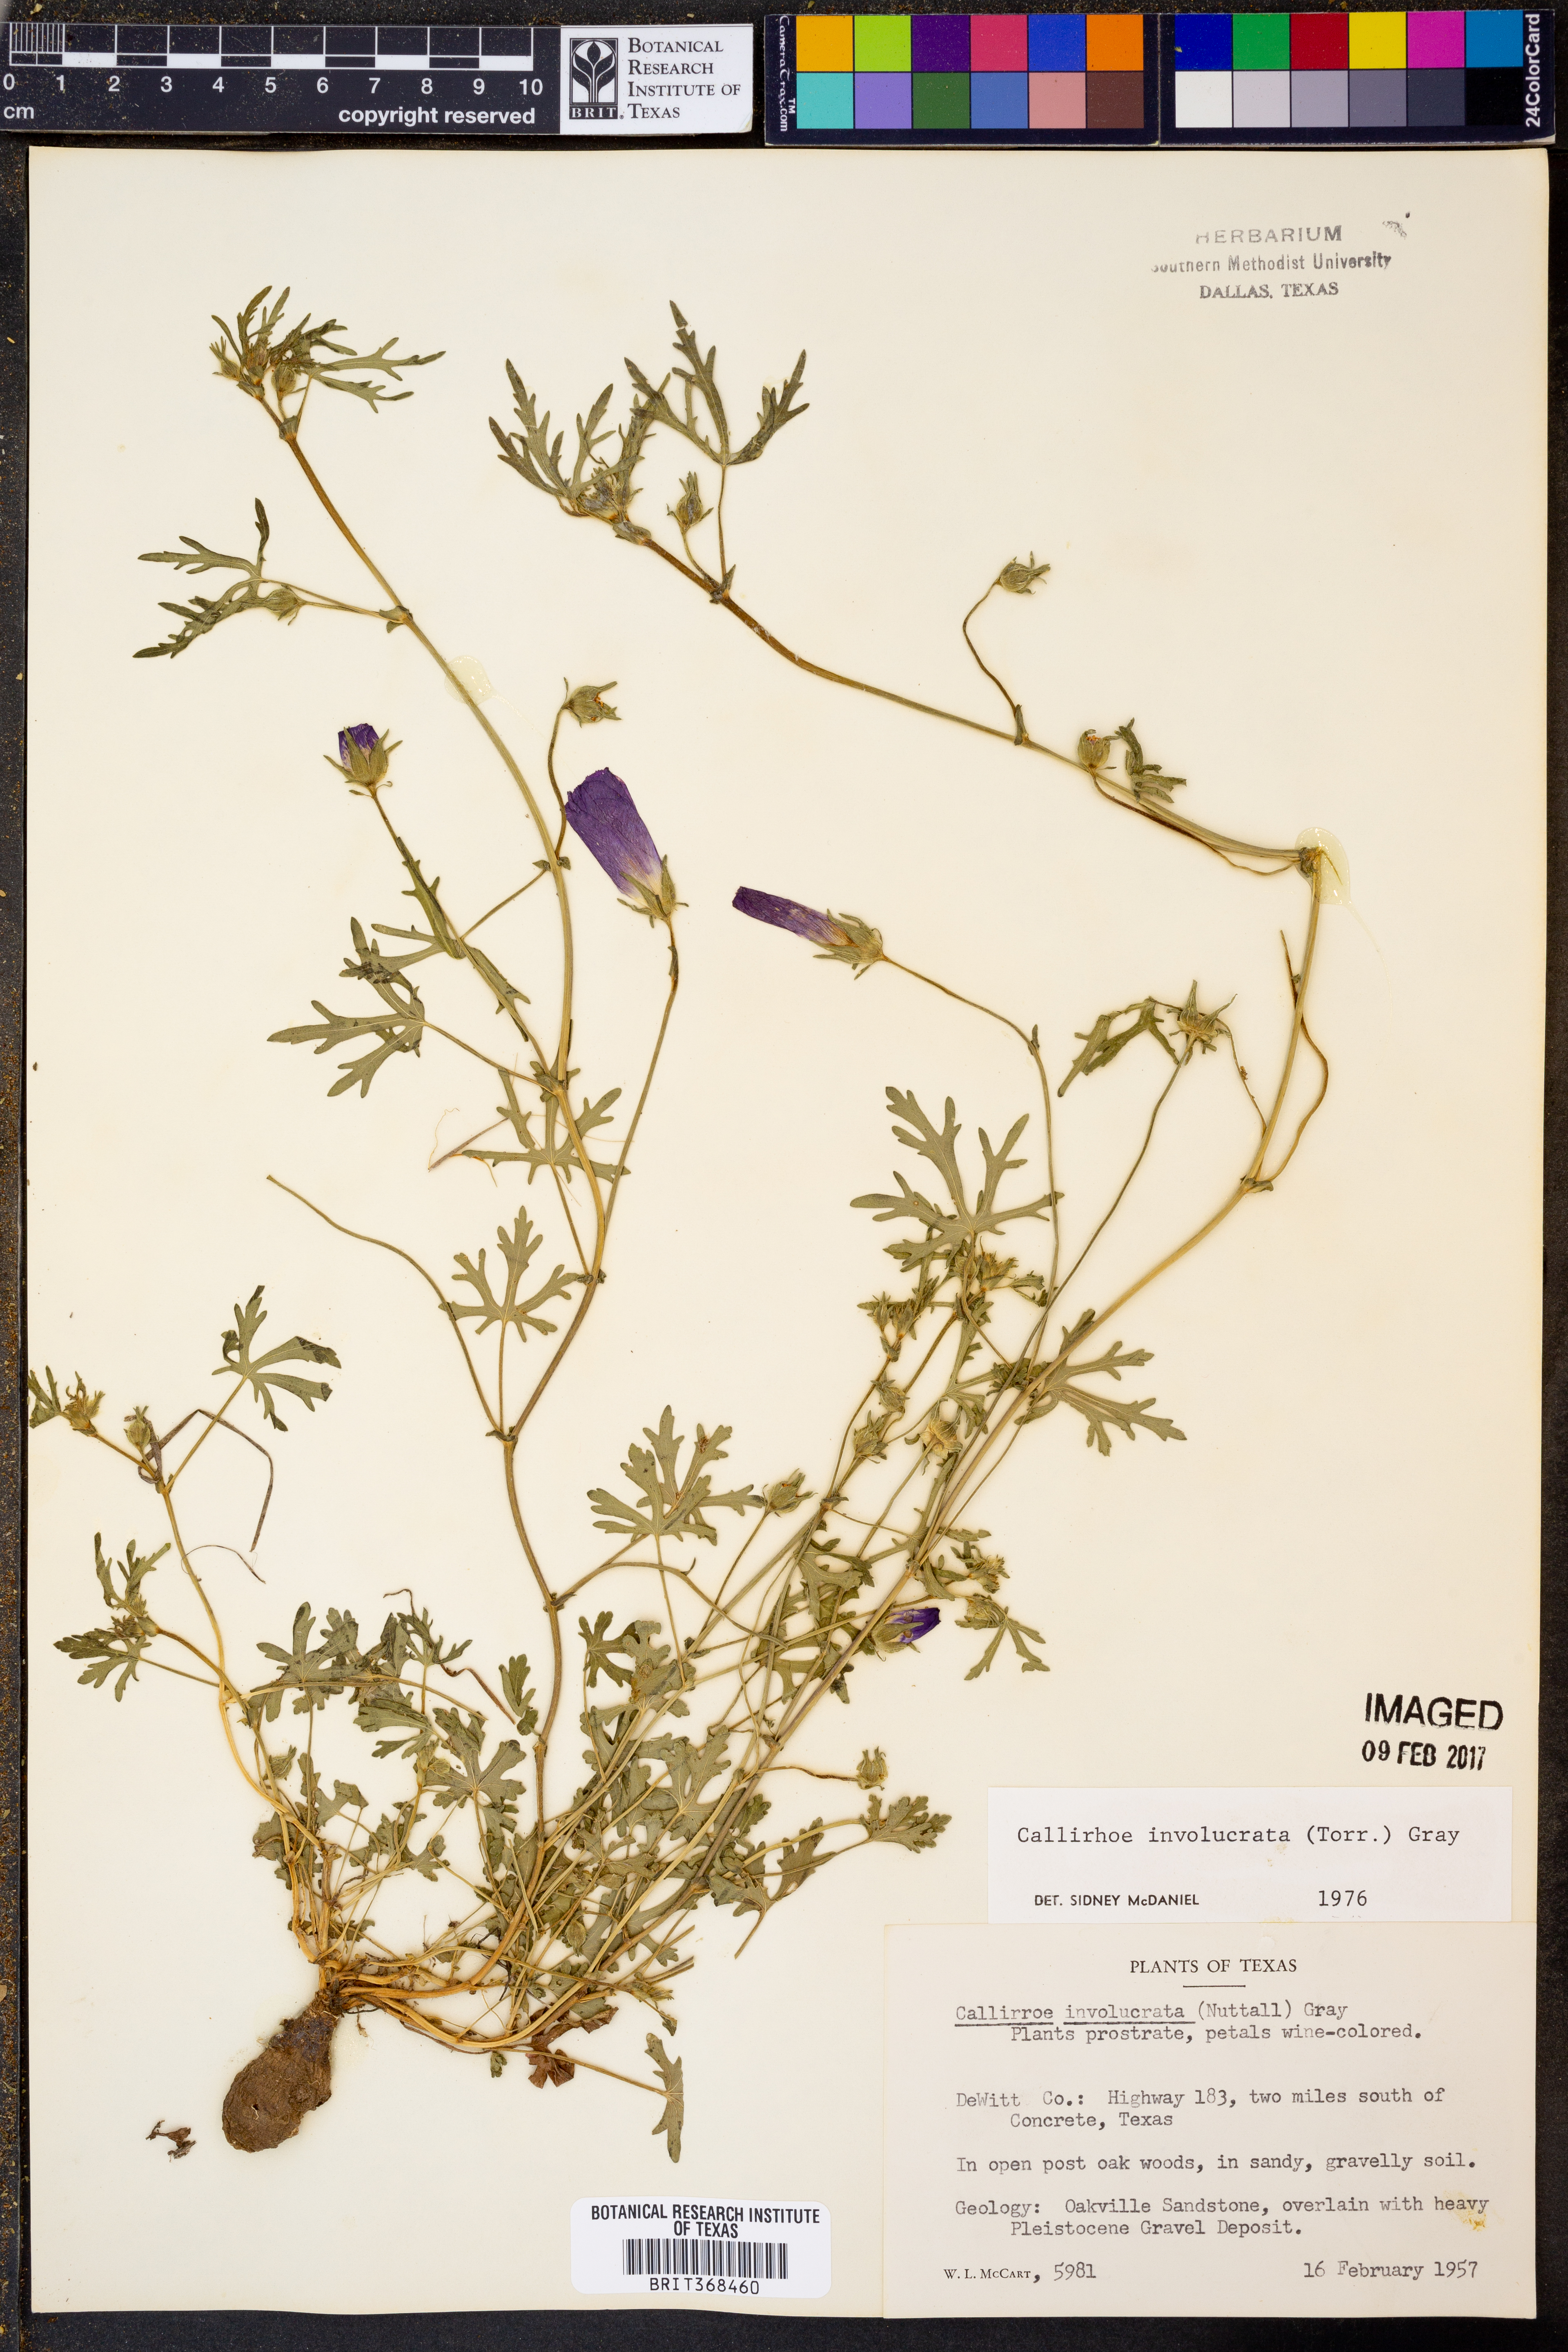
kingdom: Plantae
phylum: Tracheophyta
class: Magnoliopsida
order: Malvales
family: Malvaceae
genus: Callirhoe
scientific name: Callirhoe involucrata
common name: Purple poppy-mallow
